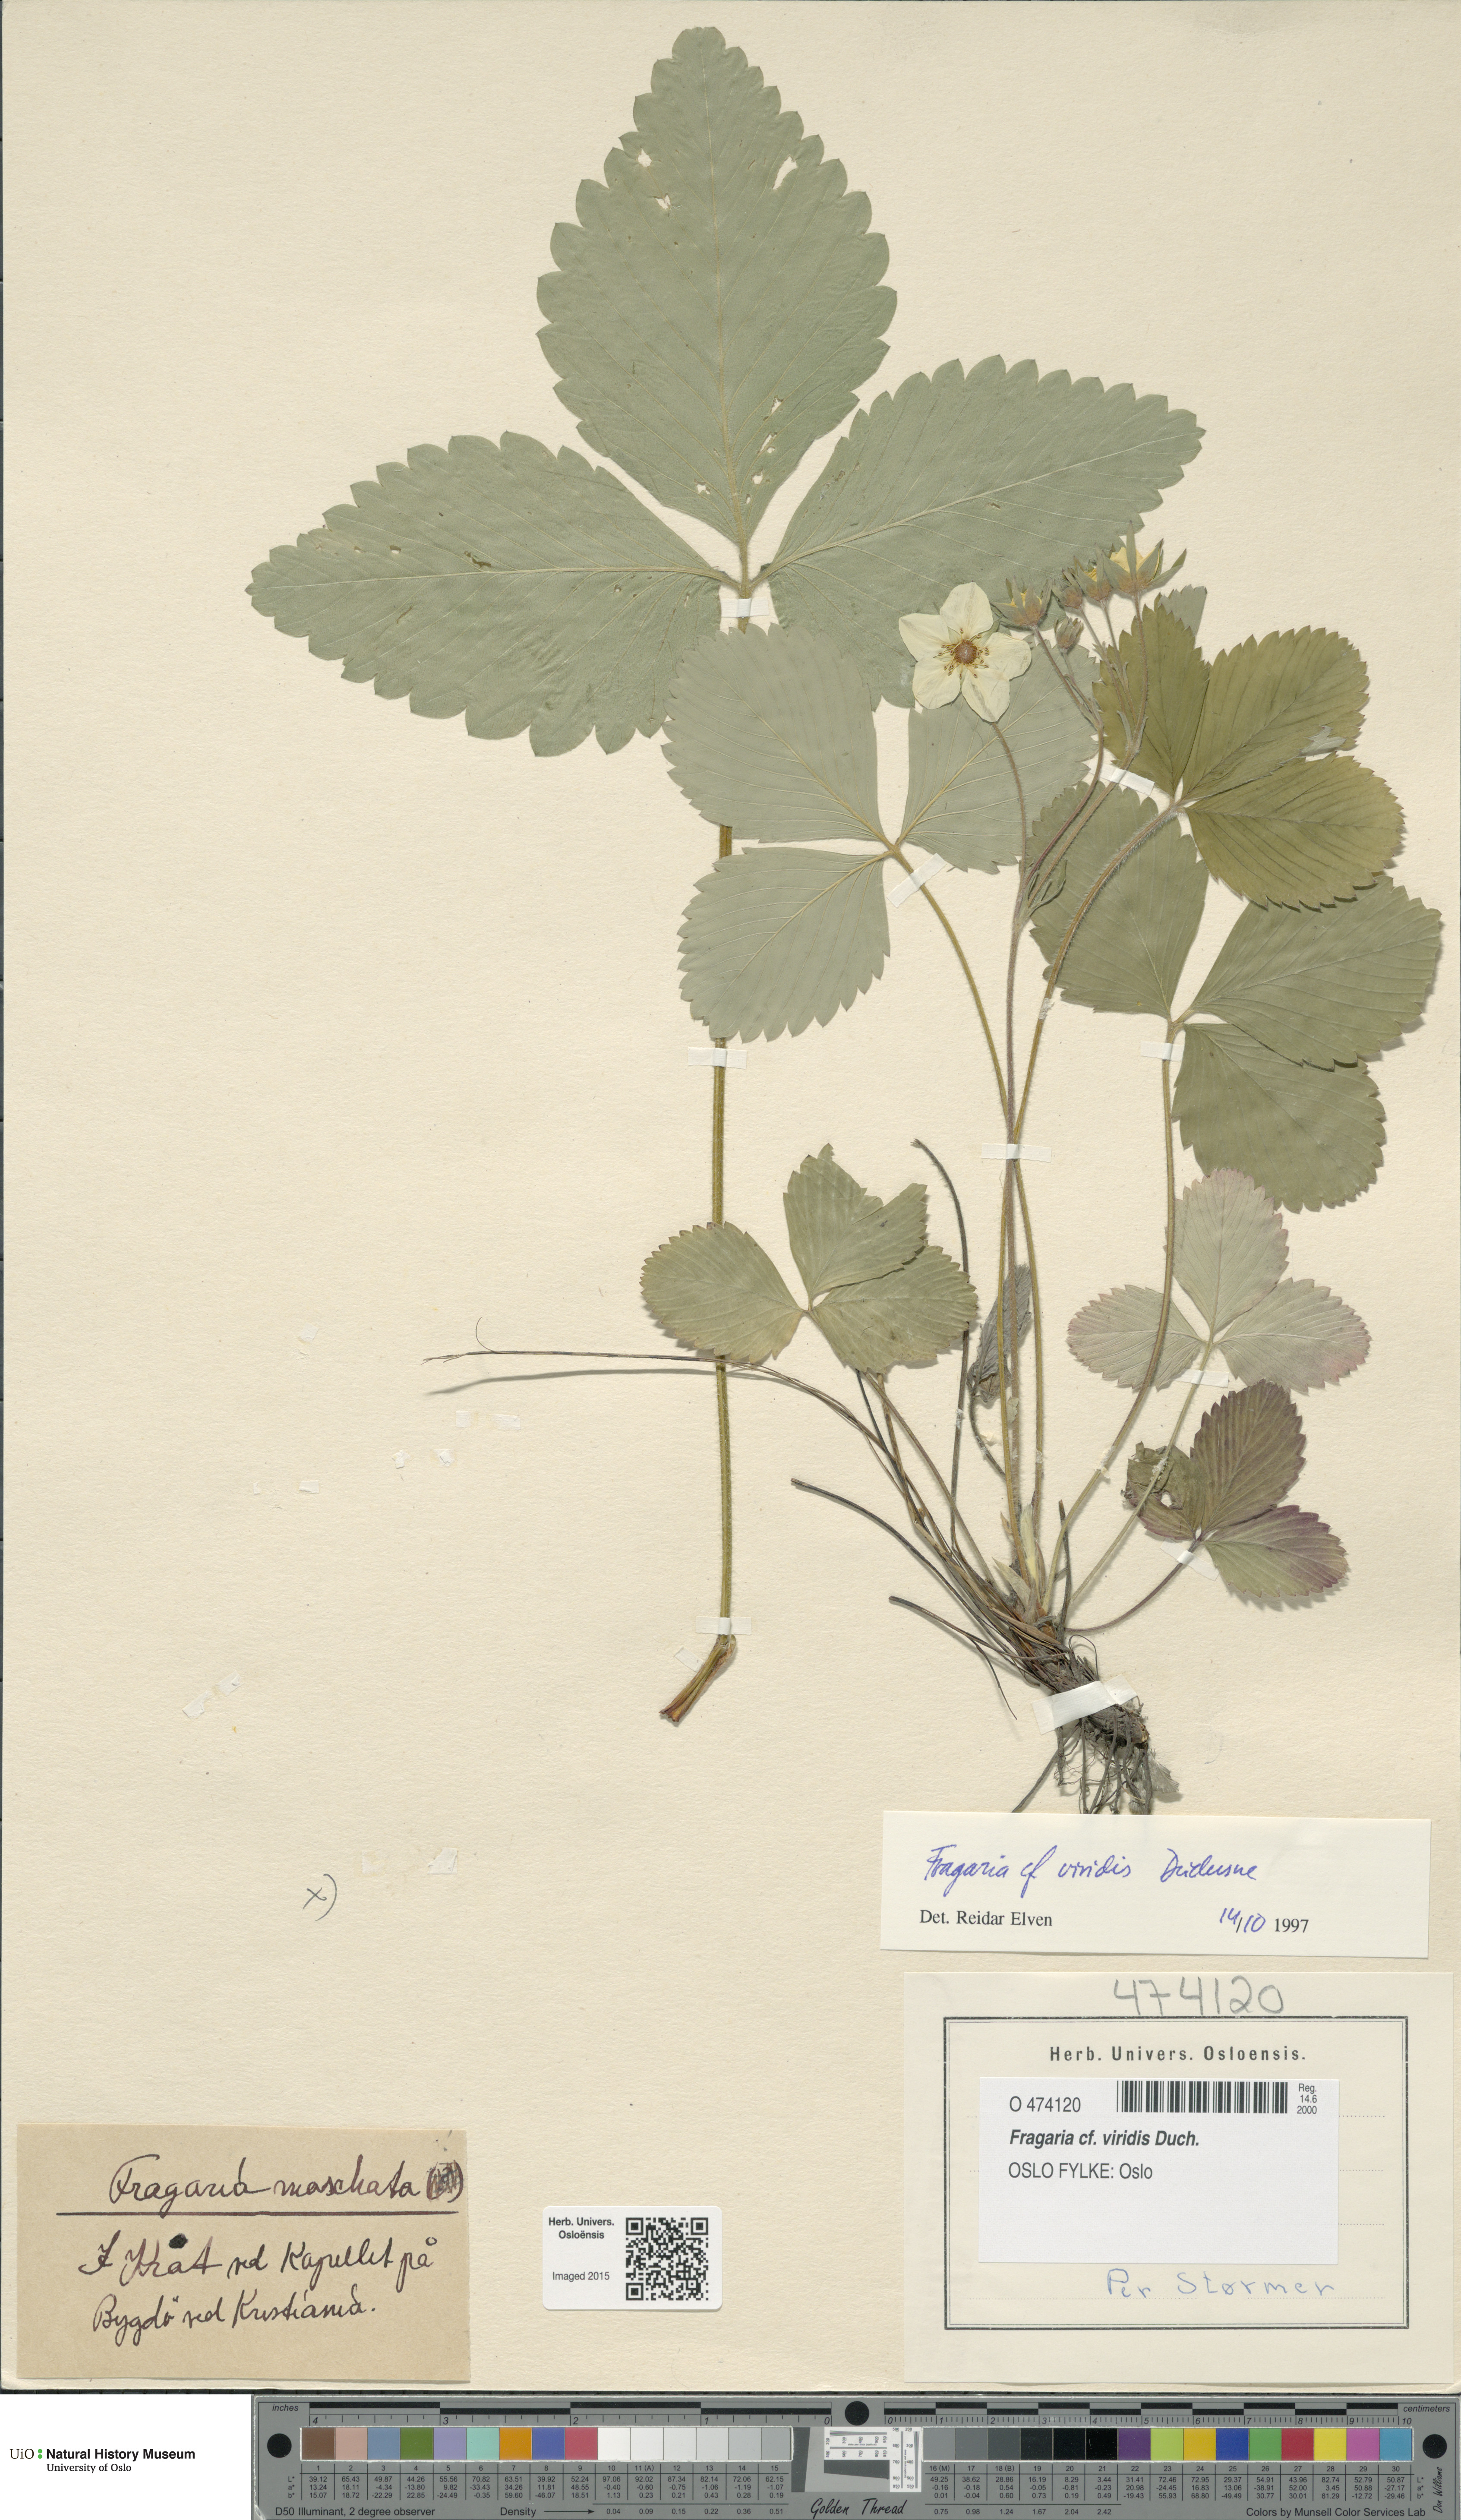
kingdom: Plantae
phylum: Tracheophyta
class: Magnoliopsida
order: Rosales
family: Rosaceae
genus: Fragaria
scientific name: Fragaria viridis
